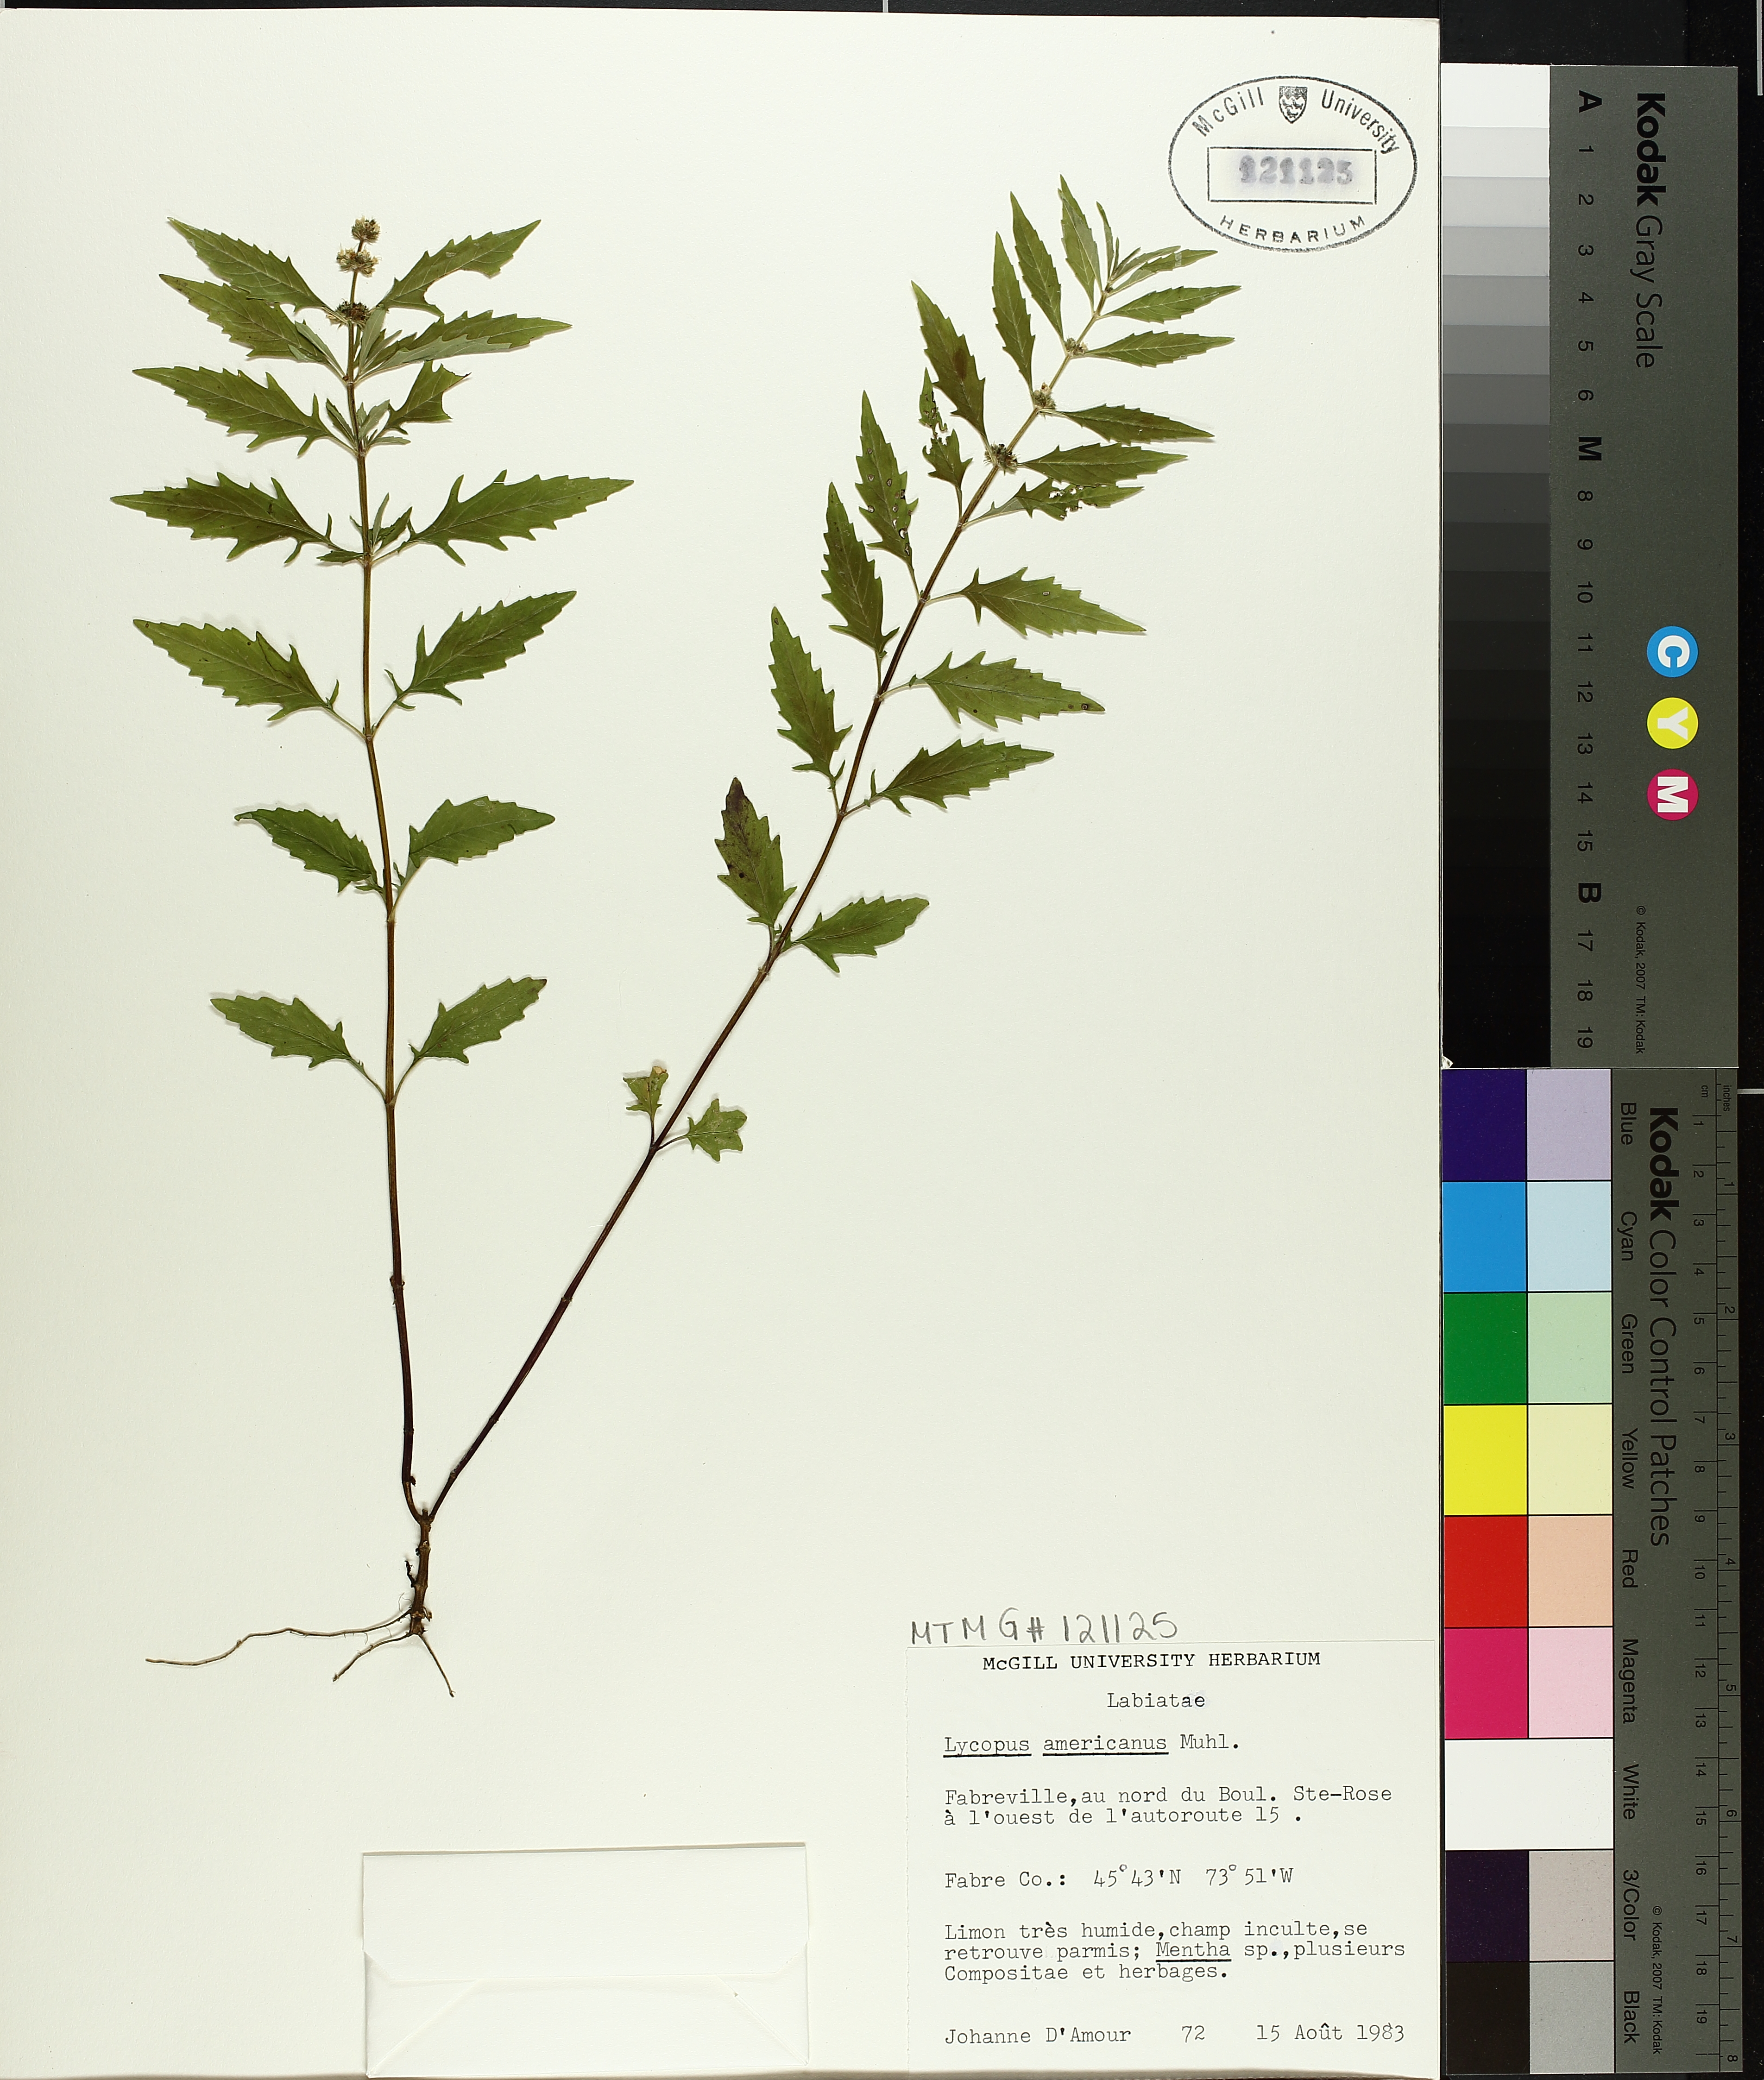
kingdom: Plantae
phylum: Tracheophyta
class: Magnoliopsida
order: Lamiales
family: Lamiaceae
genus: Lycopus
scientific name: Lycopus americanus
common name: American bugleweed
